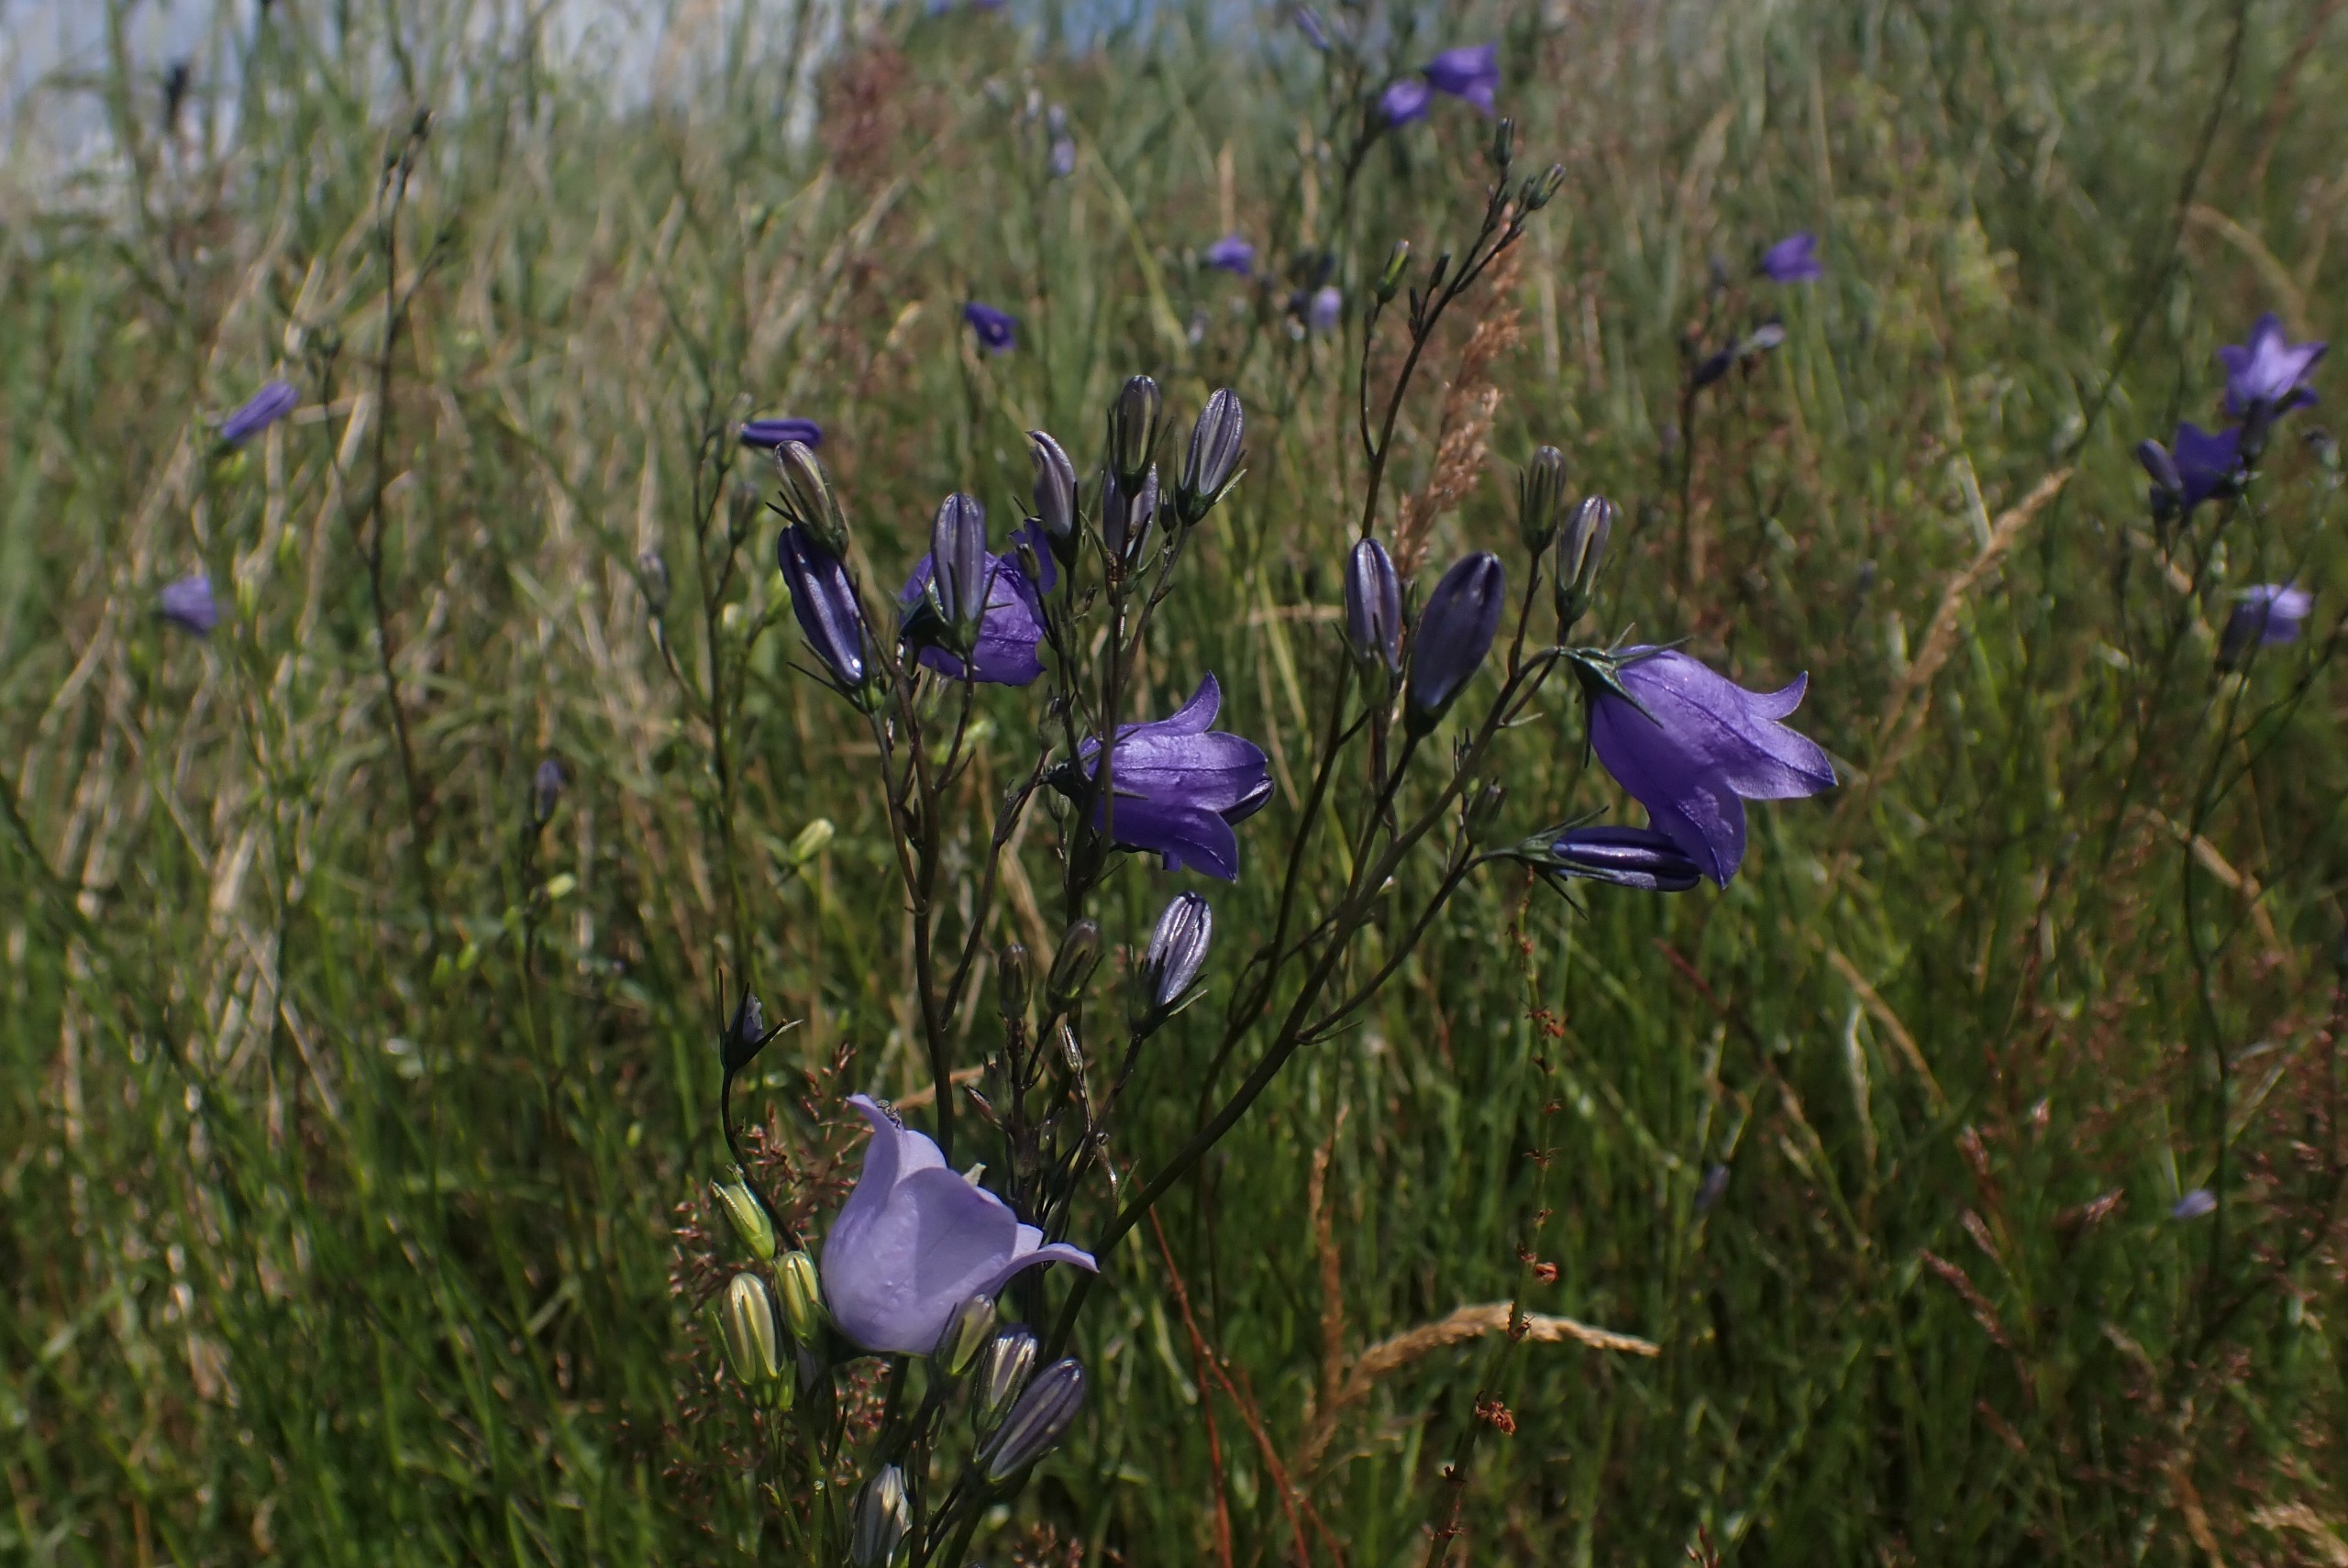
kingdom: Plantae
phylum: Tracheophyta
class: Magnoliopsida
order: Asterales
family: Campanulaceae
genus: Campanula
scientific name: Campanula rotundifolia
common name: Liden klokke
